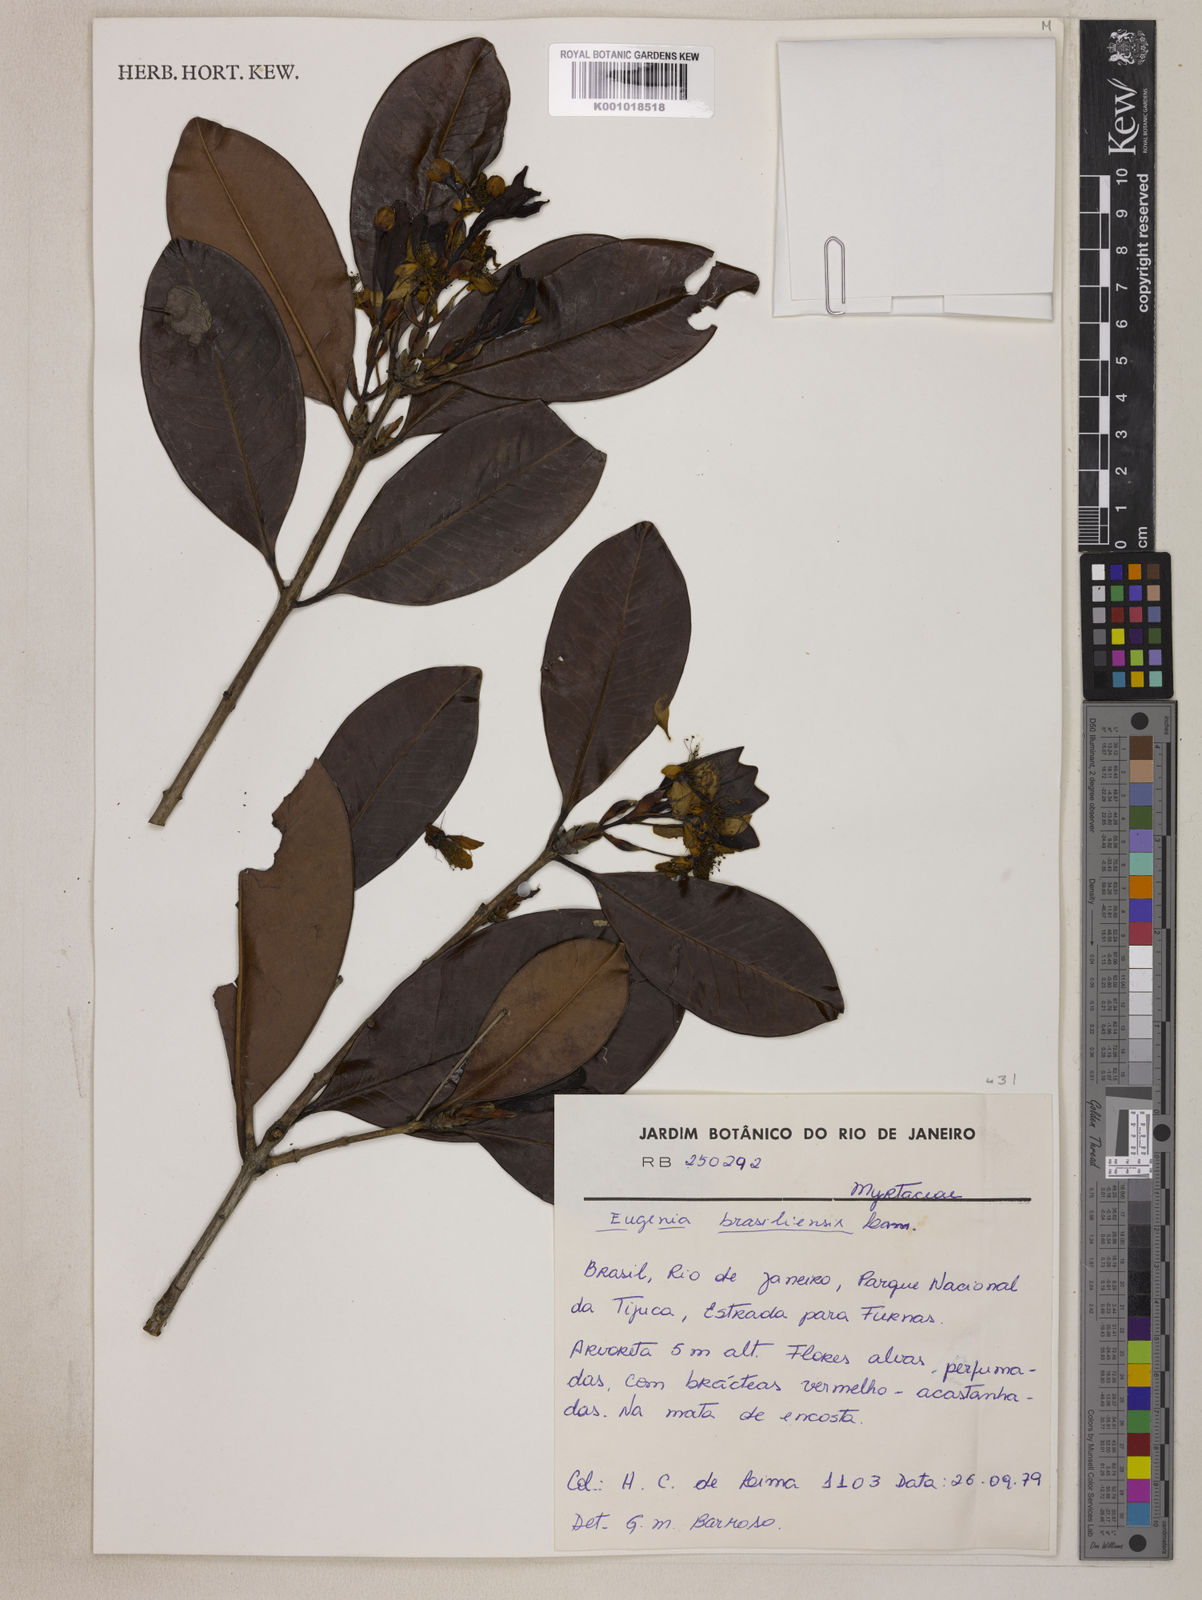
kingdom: Plantae
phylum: Tracheophyta
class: Magnoliopsida
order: Myrtales
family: Myrtaceae
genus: Eugenia
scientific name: Eugenia brasiliensis
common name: Grumichama
